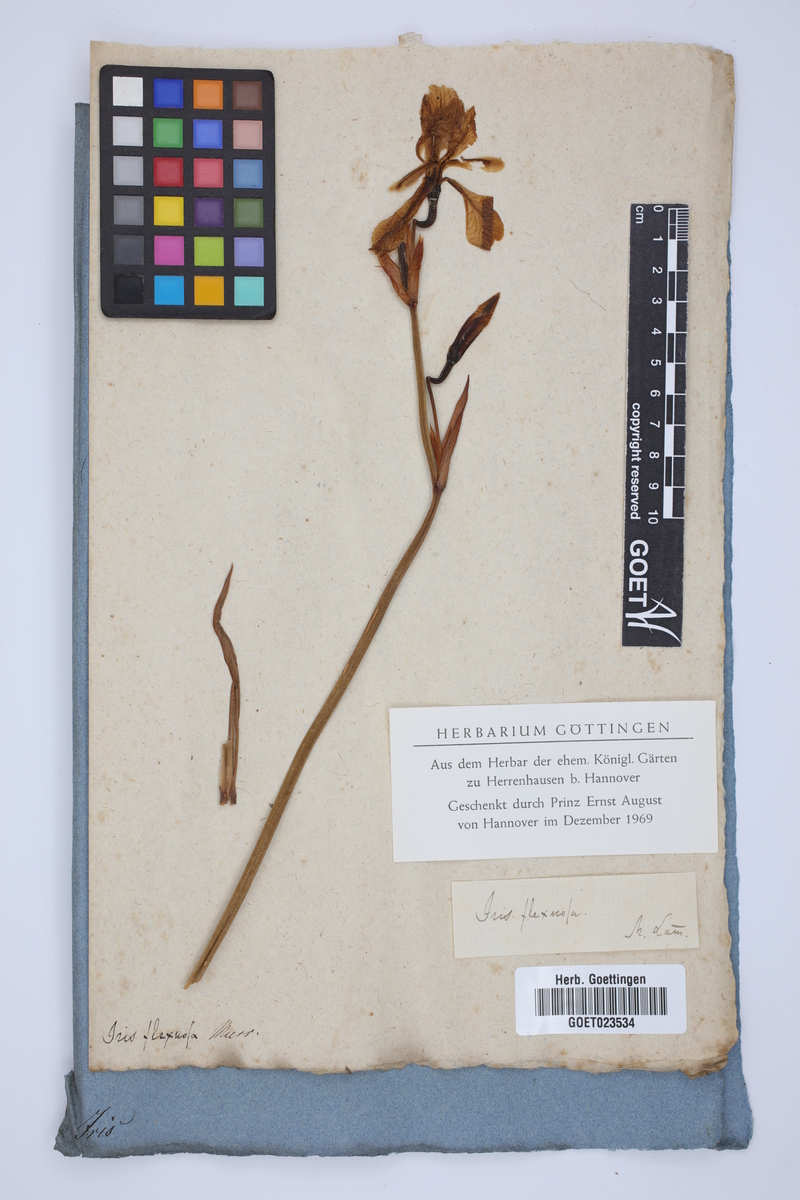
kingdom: Plantae
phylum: Tracheophyta
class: Liliopsida
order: Asparagales
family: Iridaceae
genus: Iris
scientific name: Iris sibirica
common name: Siberian iris
